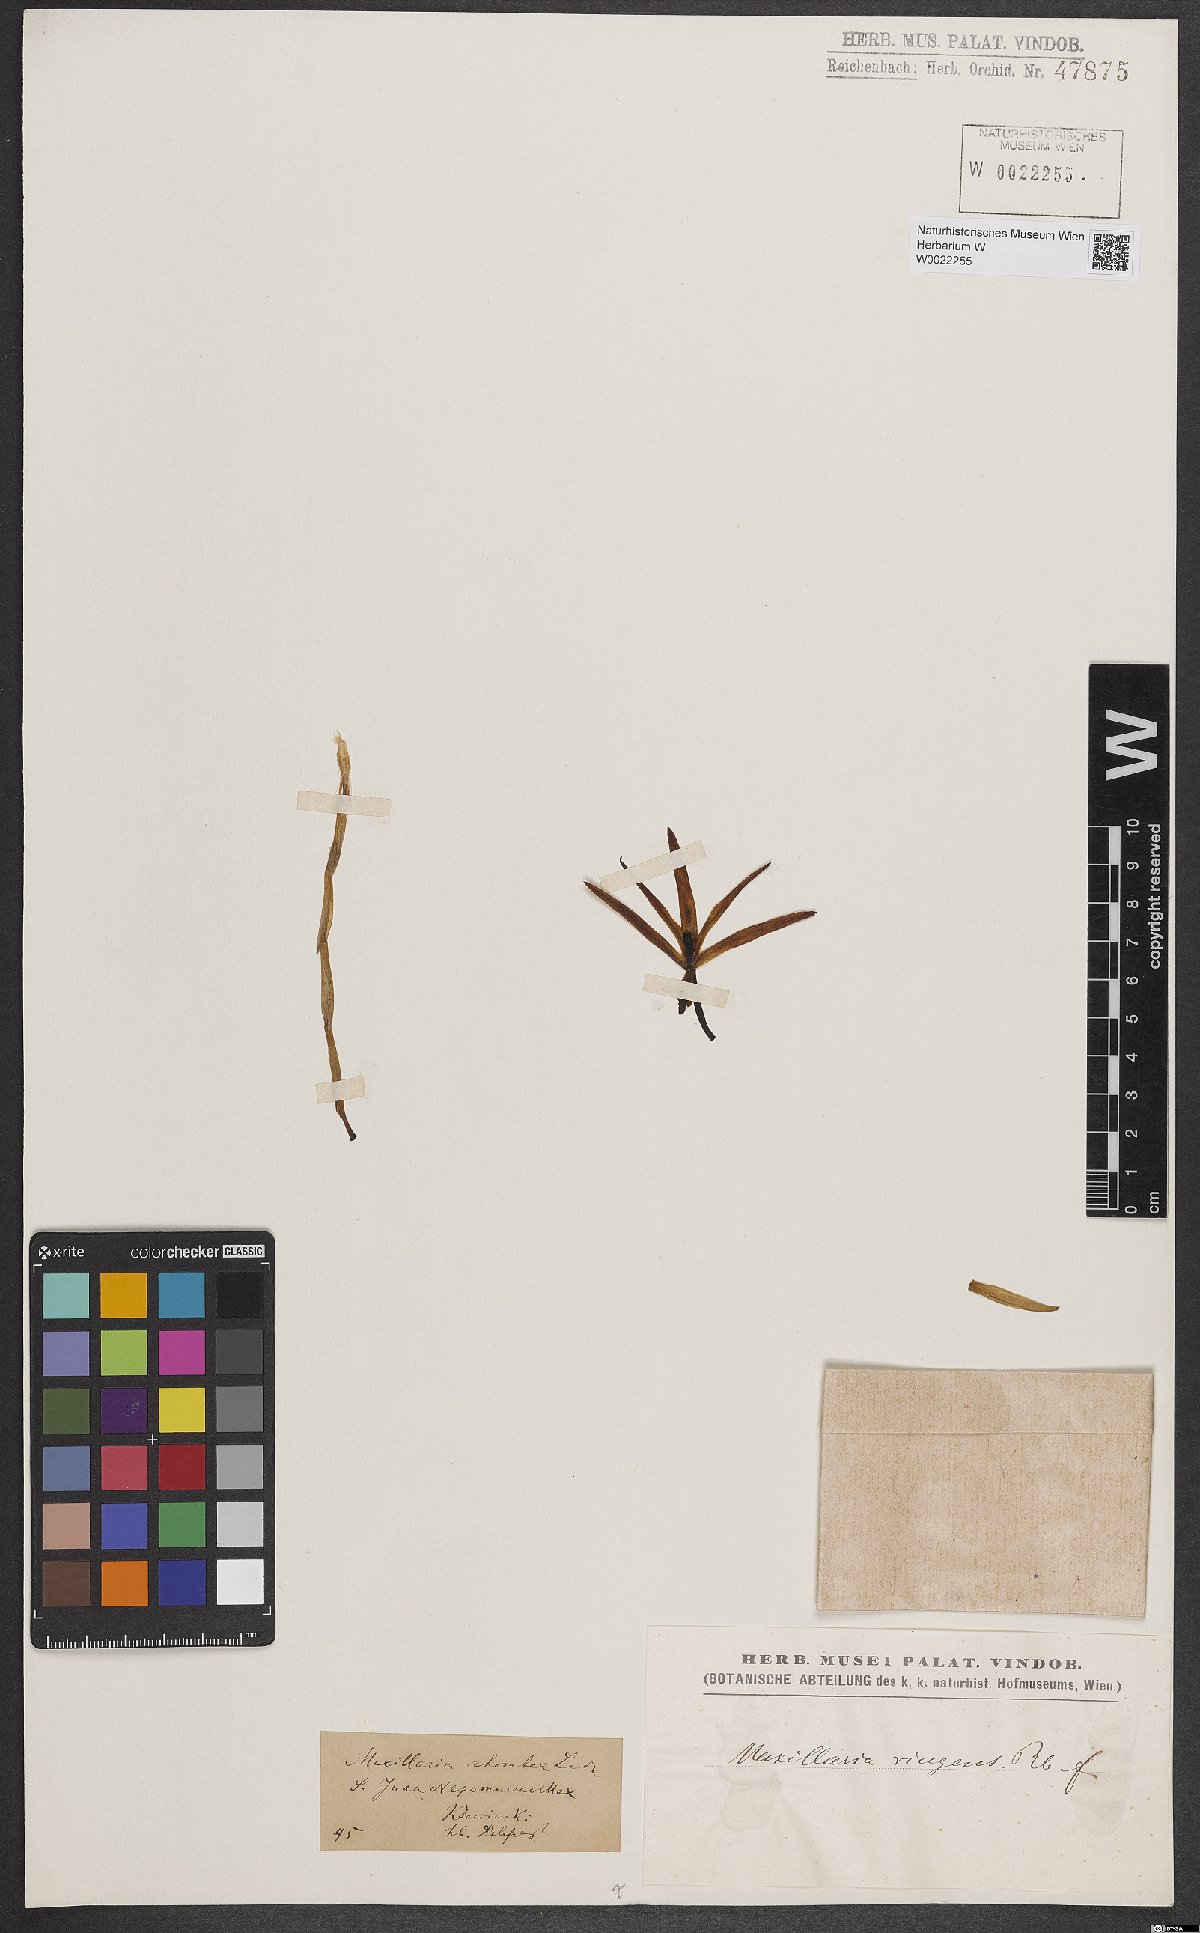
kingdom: Plantae
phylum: Tracheophyta
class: Liliopsida
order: Asparagales
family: Orchidaceae
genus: Maxillaria
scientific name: Maxillaria ringens
